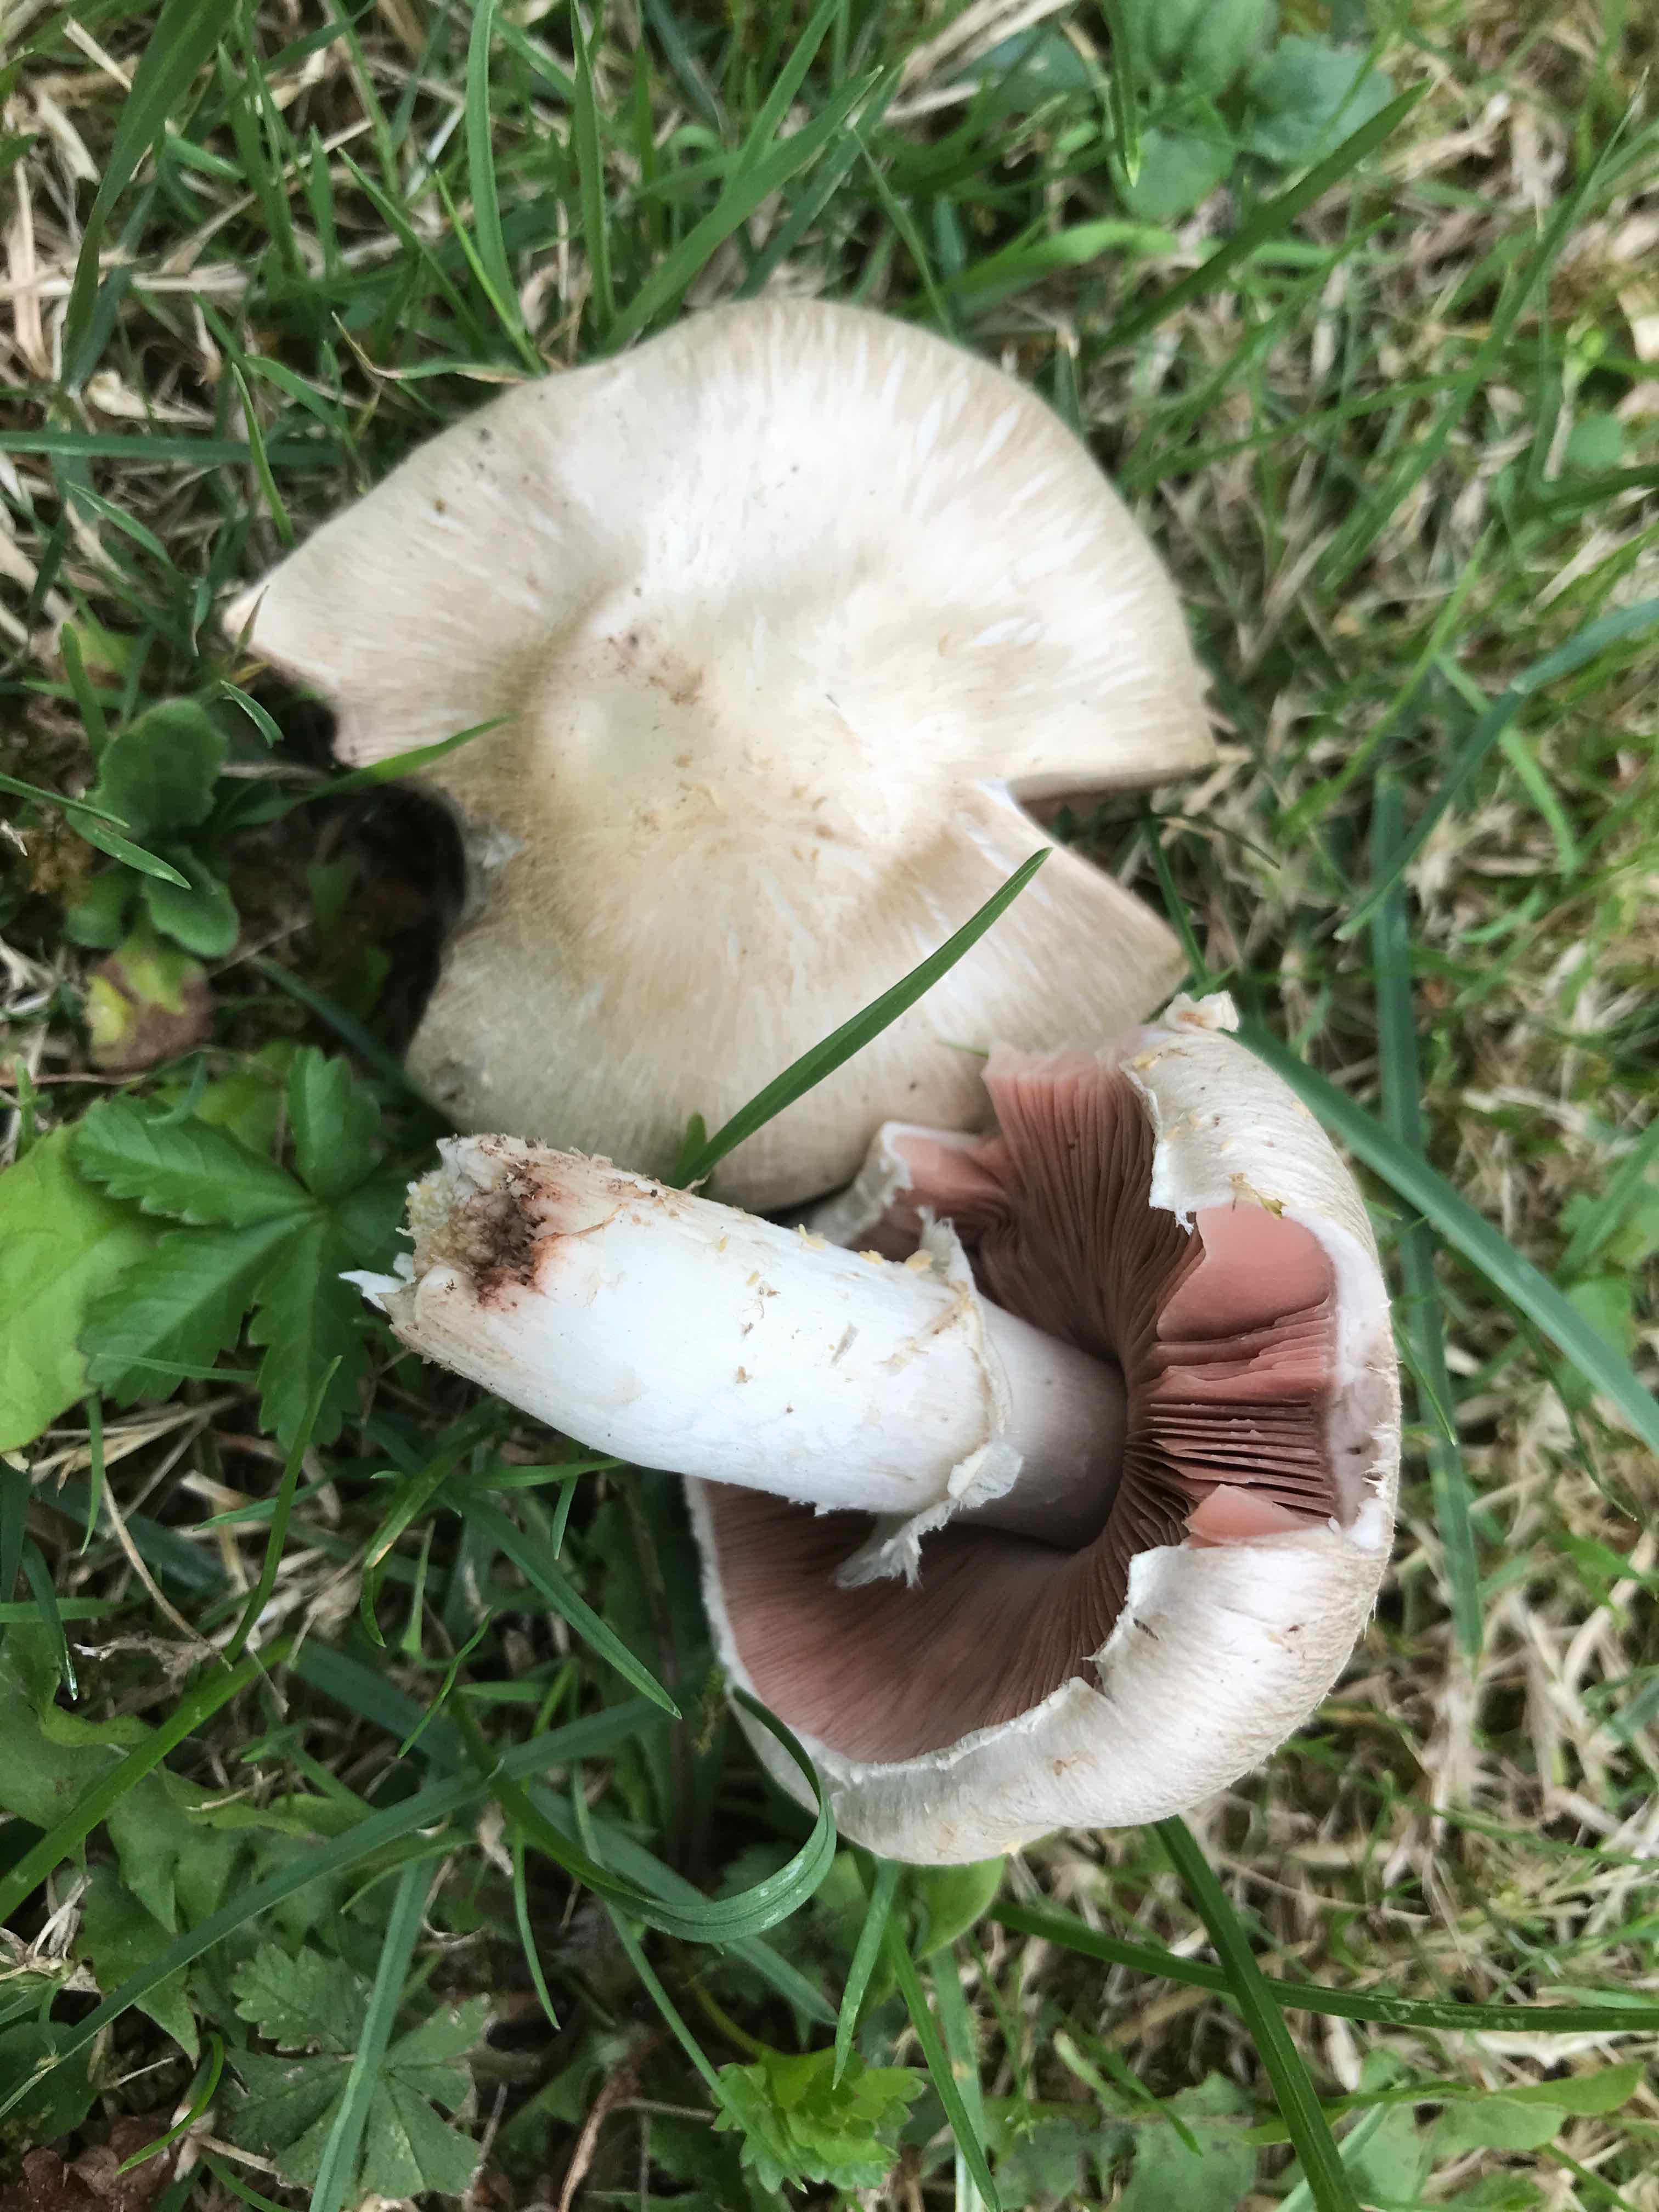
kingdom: Fungi
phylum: Basidiomycota
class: Agaricomycetes
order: Agaricales
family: Agaricaceae
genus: Agaricus
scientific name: Agaricus campestris
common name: mark-champignon
